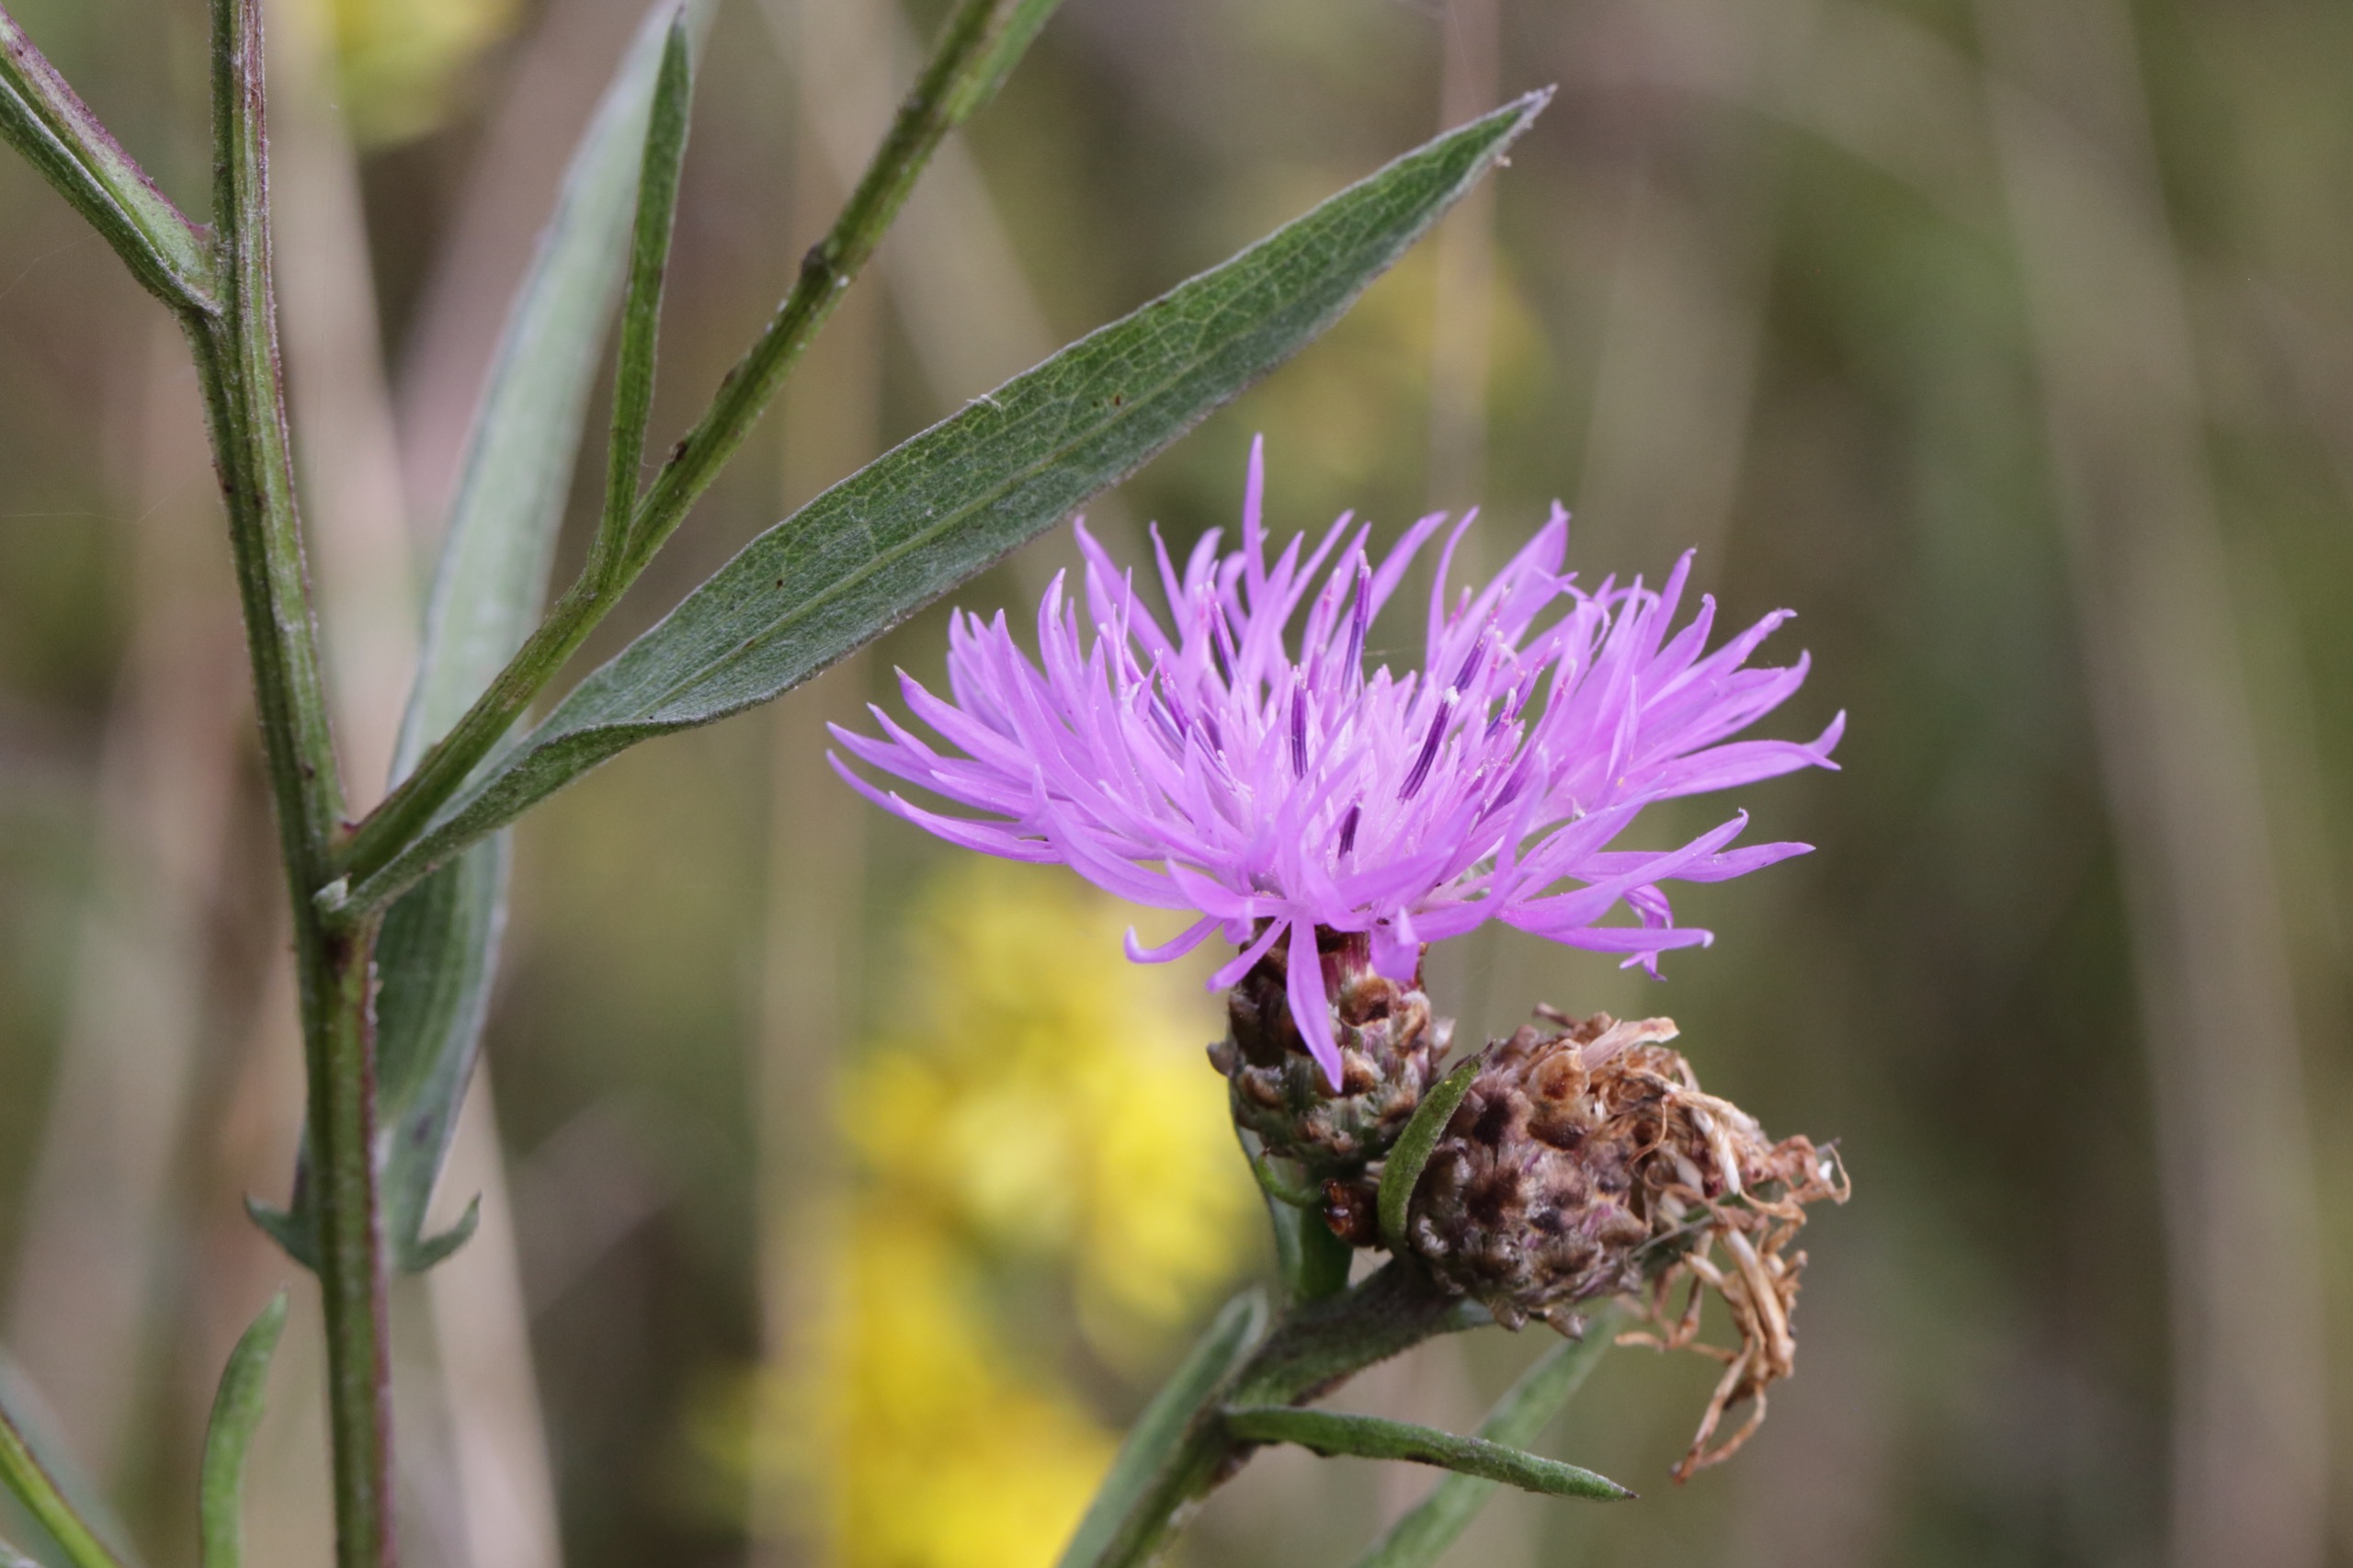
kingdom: Plantae
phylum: Tracheophyta
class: Magnoliopsida
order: Asterales
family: Asteraceae
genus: Centaurea
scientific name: Centaurea jacea
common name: Almindelig knopurt
